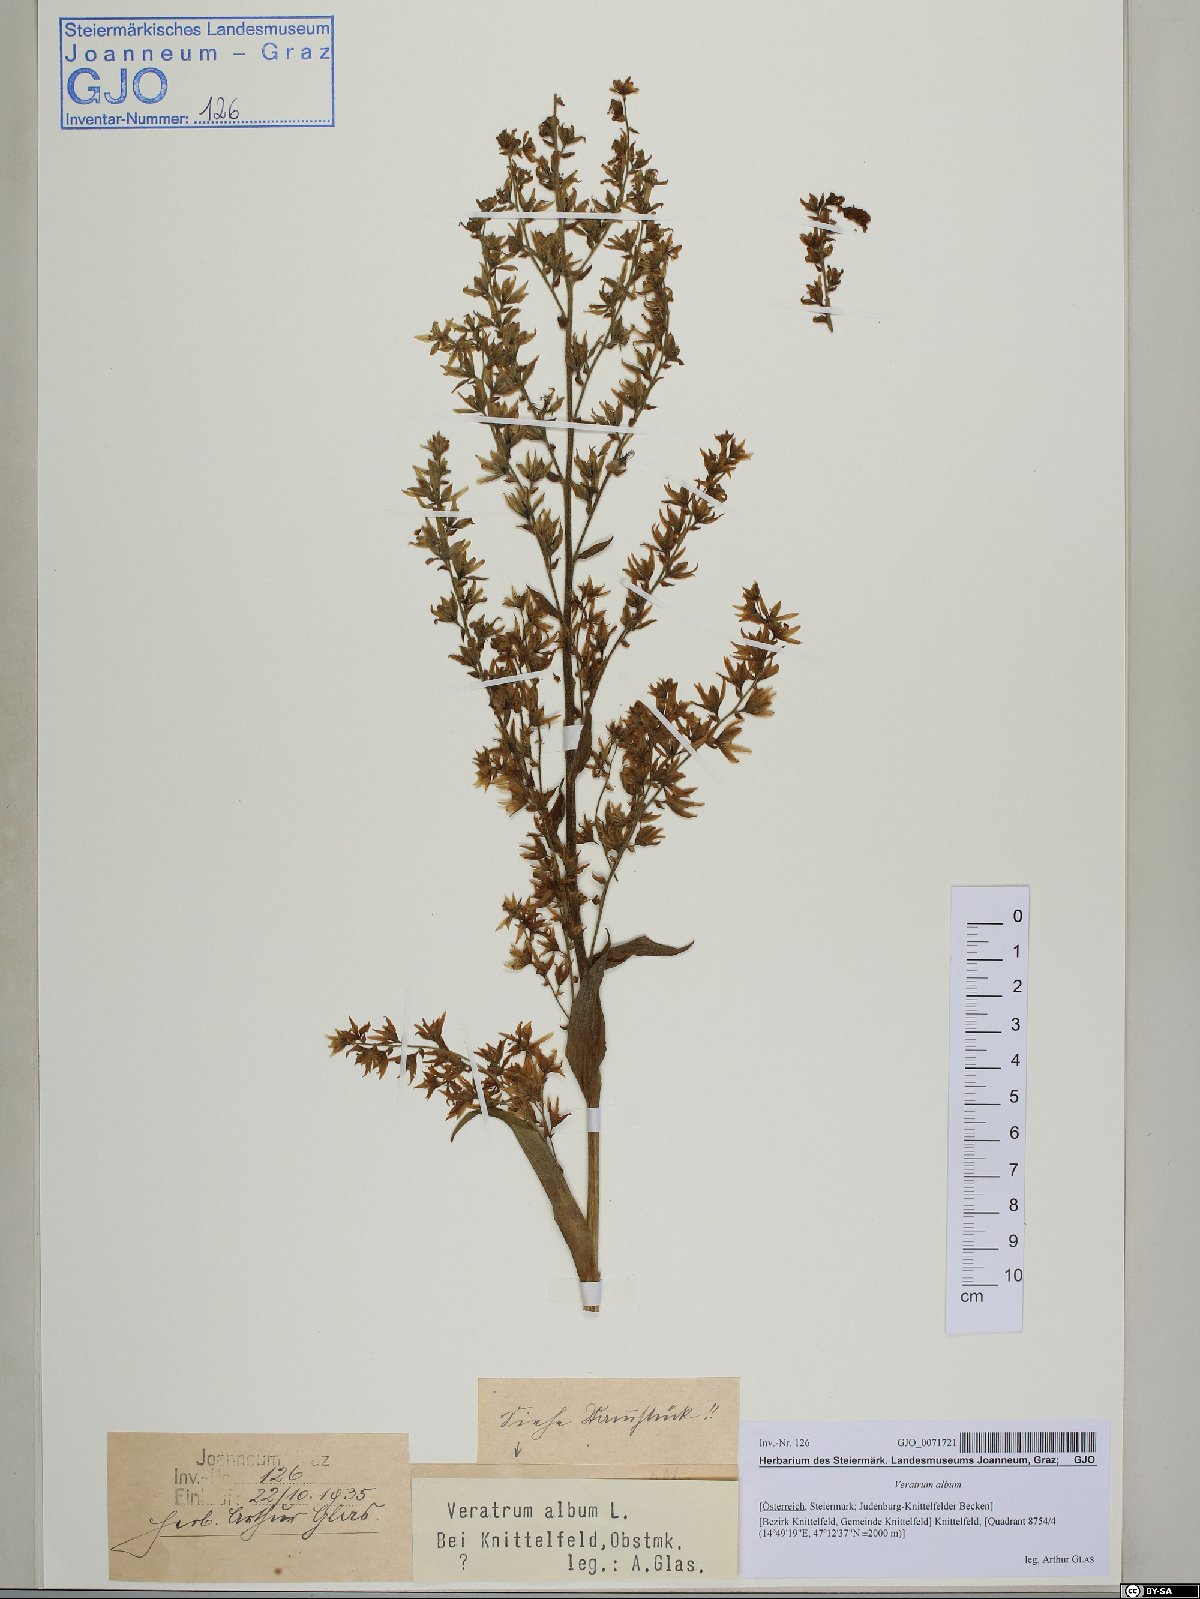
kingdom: Plantae
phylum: Tracheophyta
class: Liliopsida
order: Liliales
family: Melanthiaceae
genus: Veratrum
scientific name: Veratrum album
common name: White veratrum
